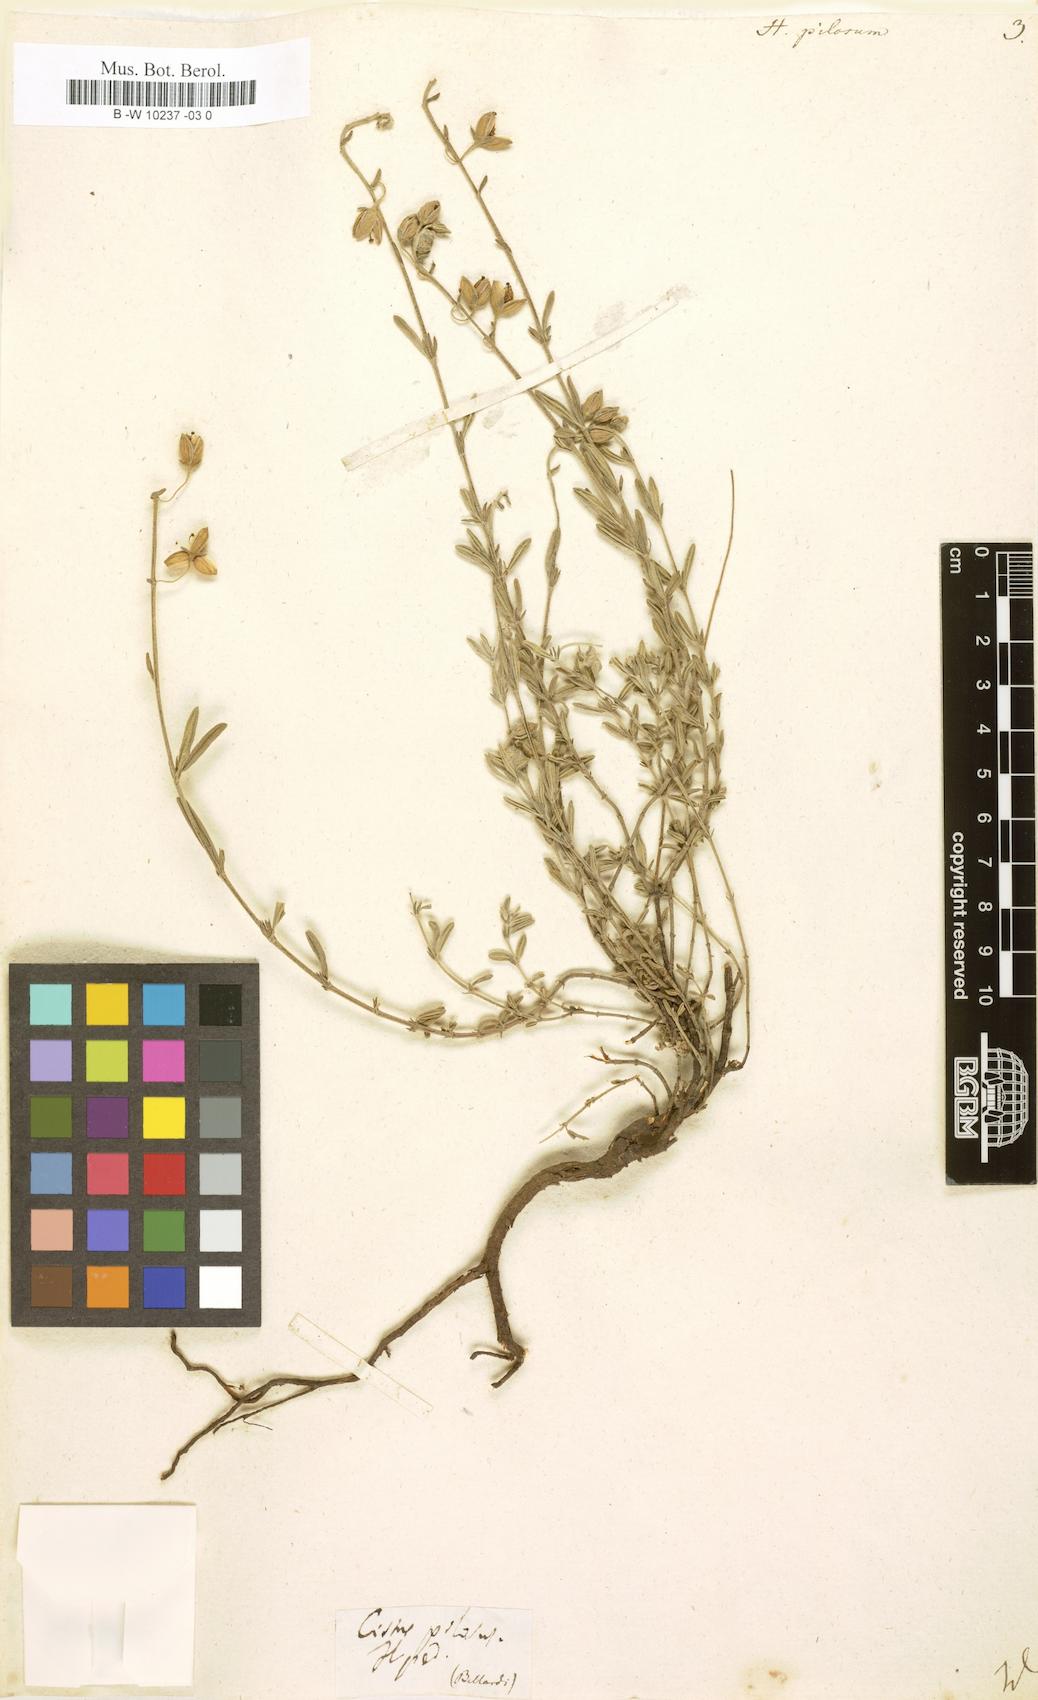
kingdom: Plantae
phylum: Tracheophyta
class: Magnoliopsida
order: Malvales
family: Cistaceae
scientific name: Cistaceae
